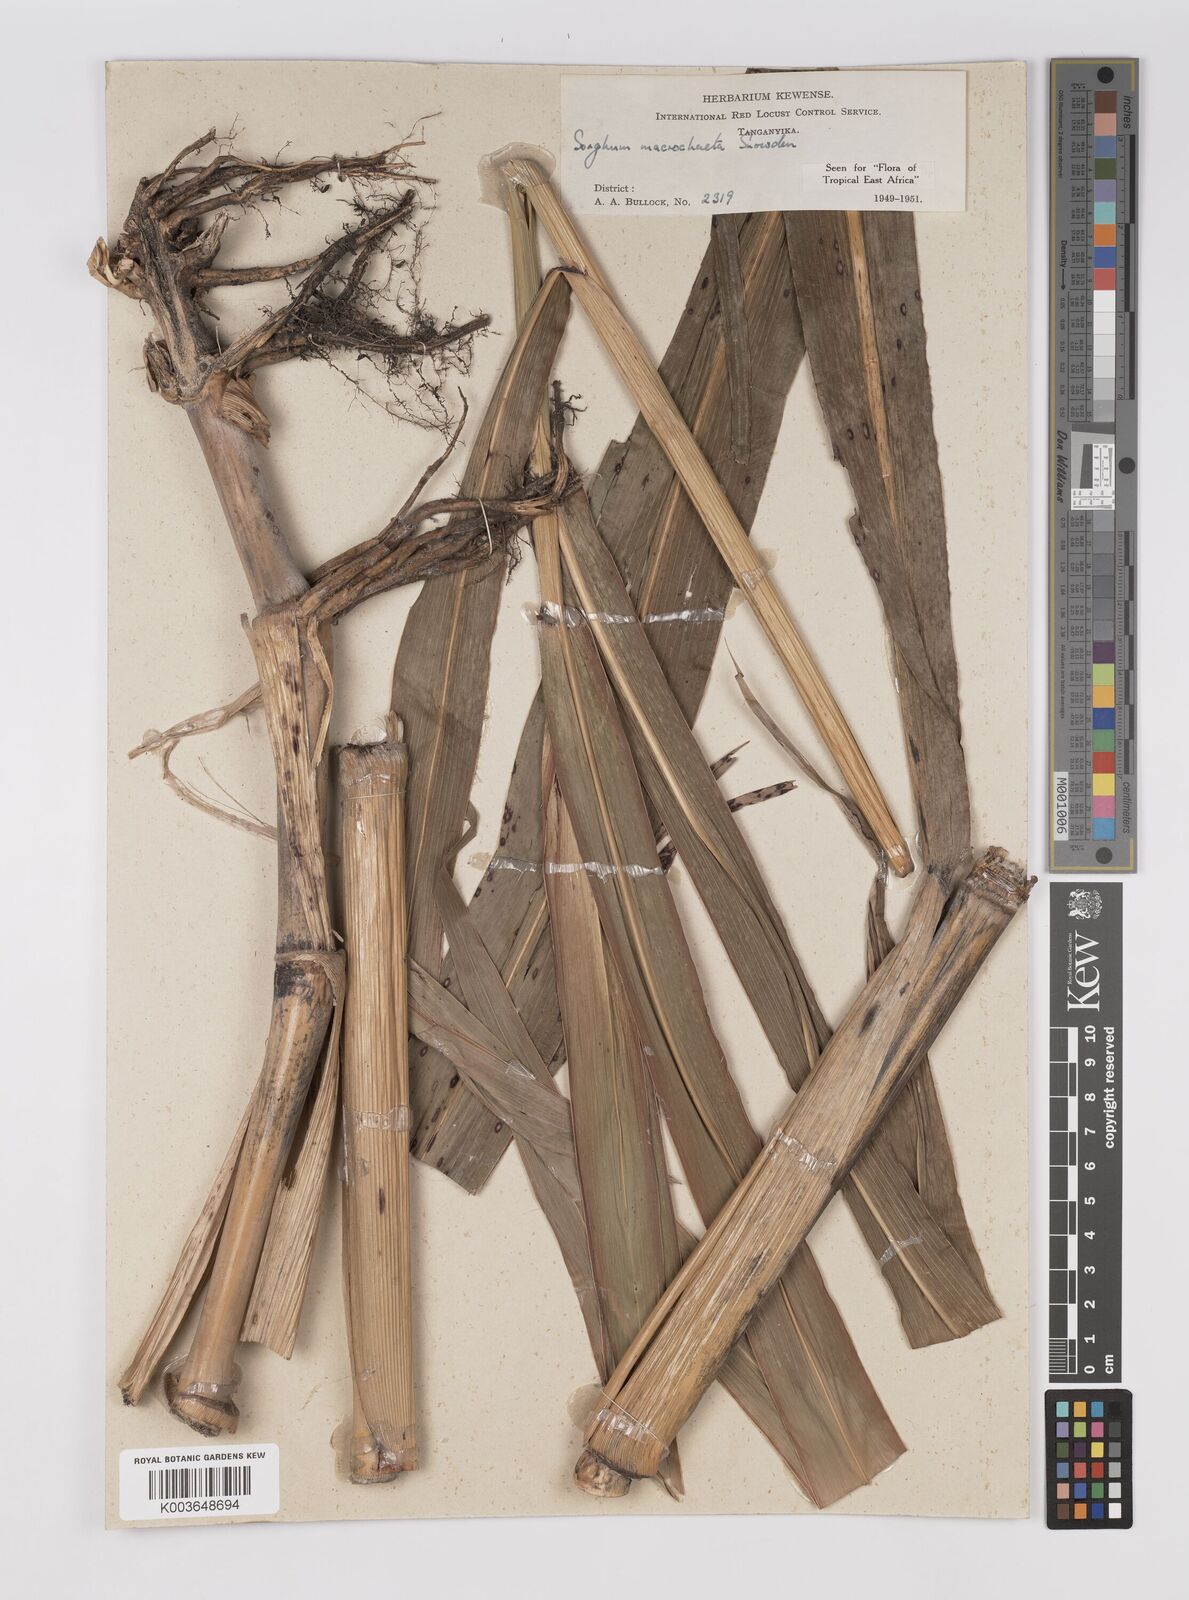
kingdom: Plantae
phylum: Tracheophyta
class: Liliopsida
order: Poales
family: Poaceae
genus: Sorghum
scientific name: Sorghum arundinaceum
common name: Sorghum
